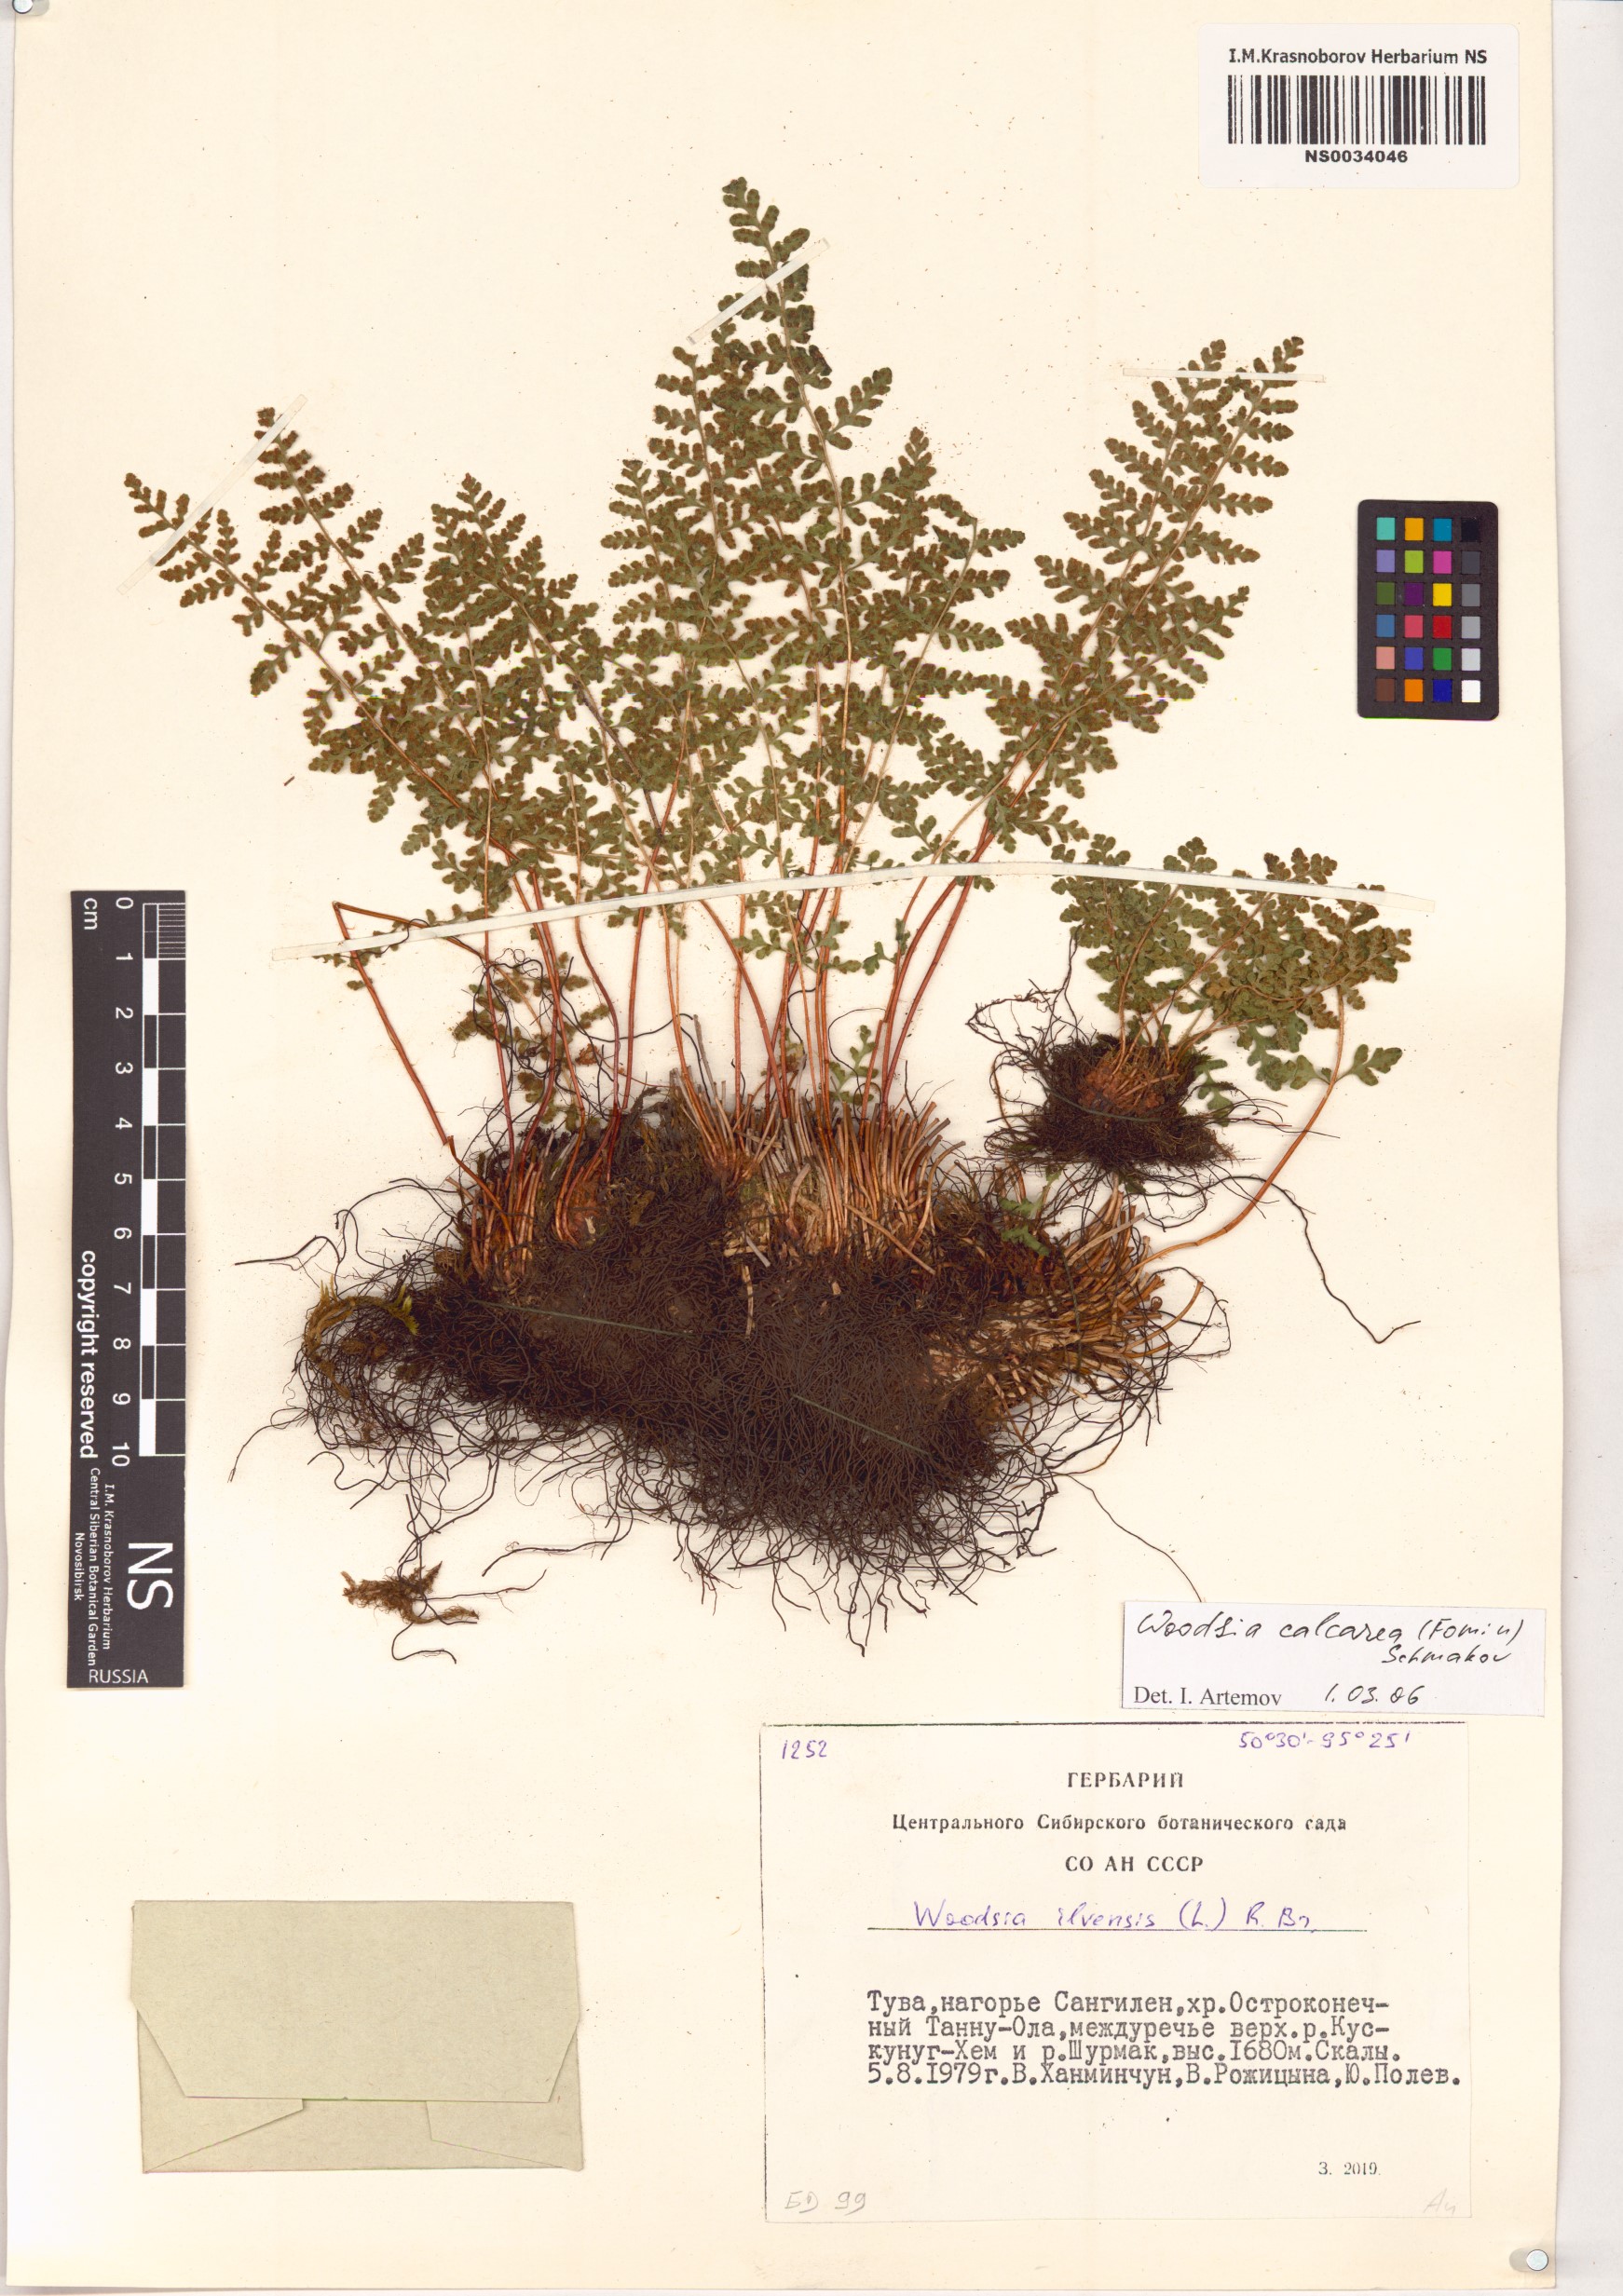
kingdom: Plantae
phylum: Tracheophyta
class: Polypodiopsida
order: Polypodiales
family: Woodsiaceae
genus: Woodsia
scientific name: Woodsia calcarea
